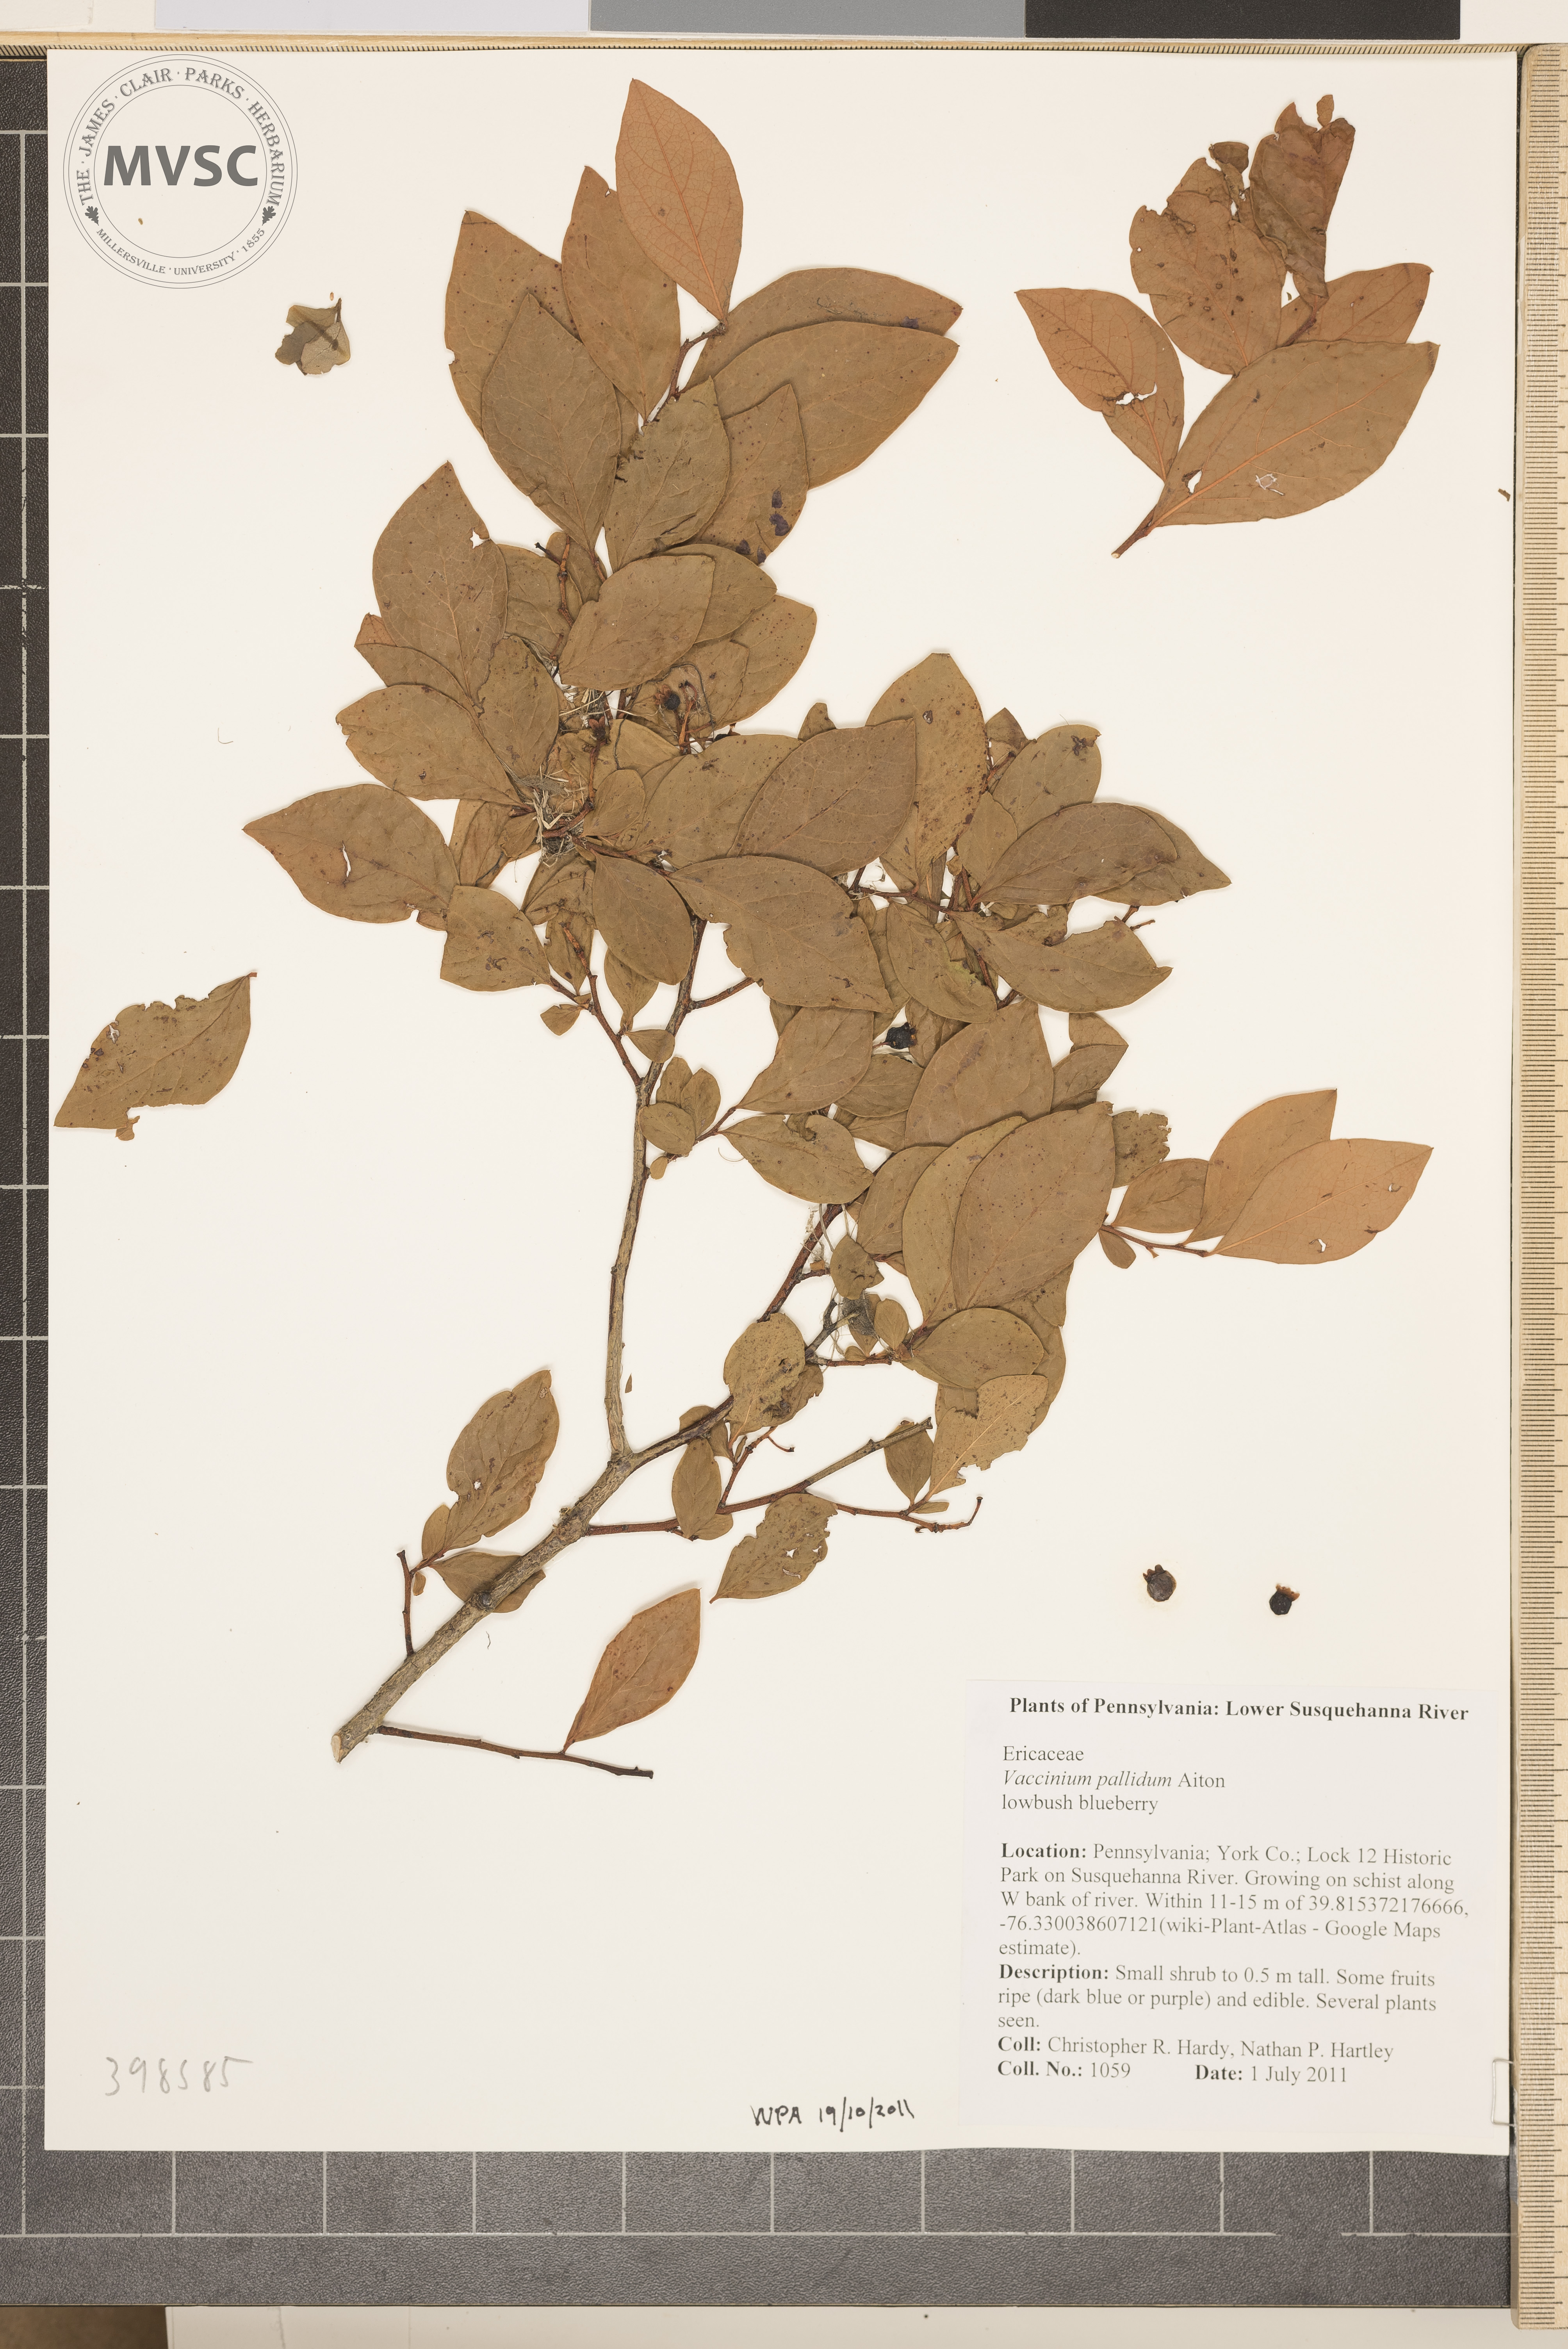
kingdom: Plantae
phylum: Tracheophyta
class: Magnoliopsida
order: Ericales
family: Ericaceae
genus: Vaccinium
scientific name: Vaccinium pallidum
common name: Lowbush blueberry
